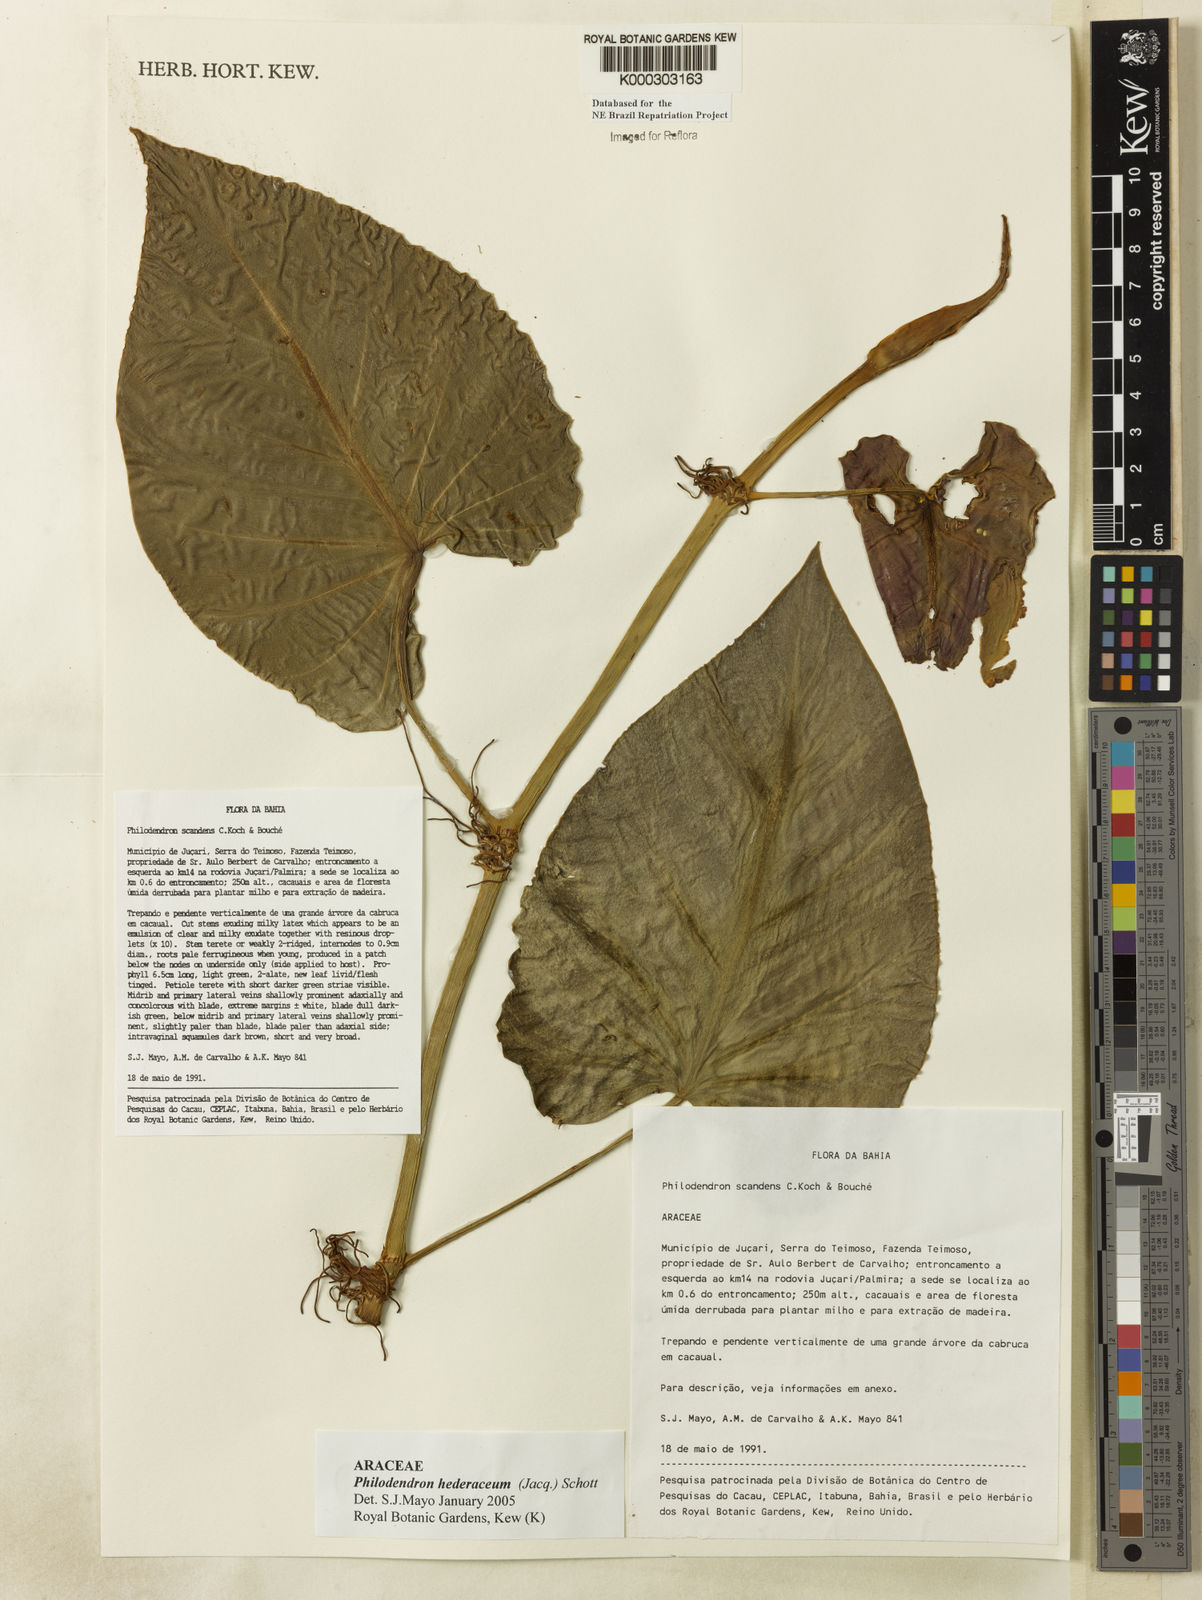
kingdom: Plantae
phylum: Tracheophyta
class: Liliopsida
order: Alismatales
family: Araceae
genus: Philodendron
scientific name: Philodendron hederaceum
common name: Vilevine
